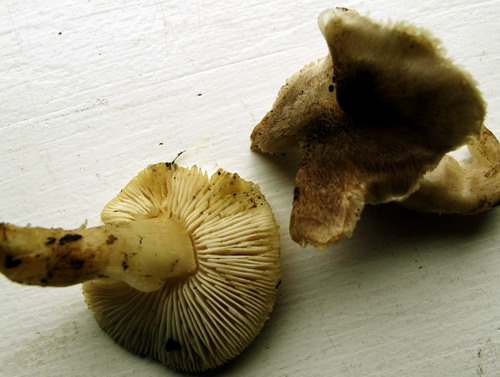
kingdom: Fungi
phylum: Basidiomycota
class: Agaricomycetes
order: Agaricales
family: Tricholomataceae
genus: Tricholoma
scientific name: Tricholoma scalpturatum
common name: gulplettet ridderhat
